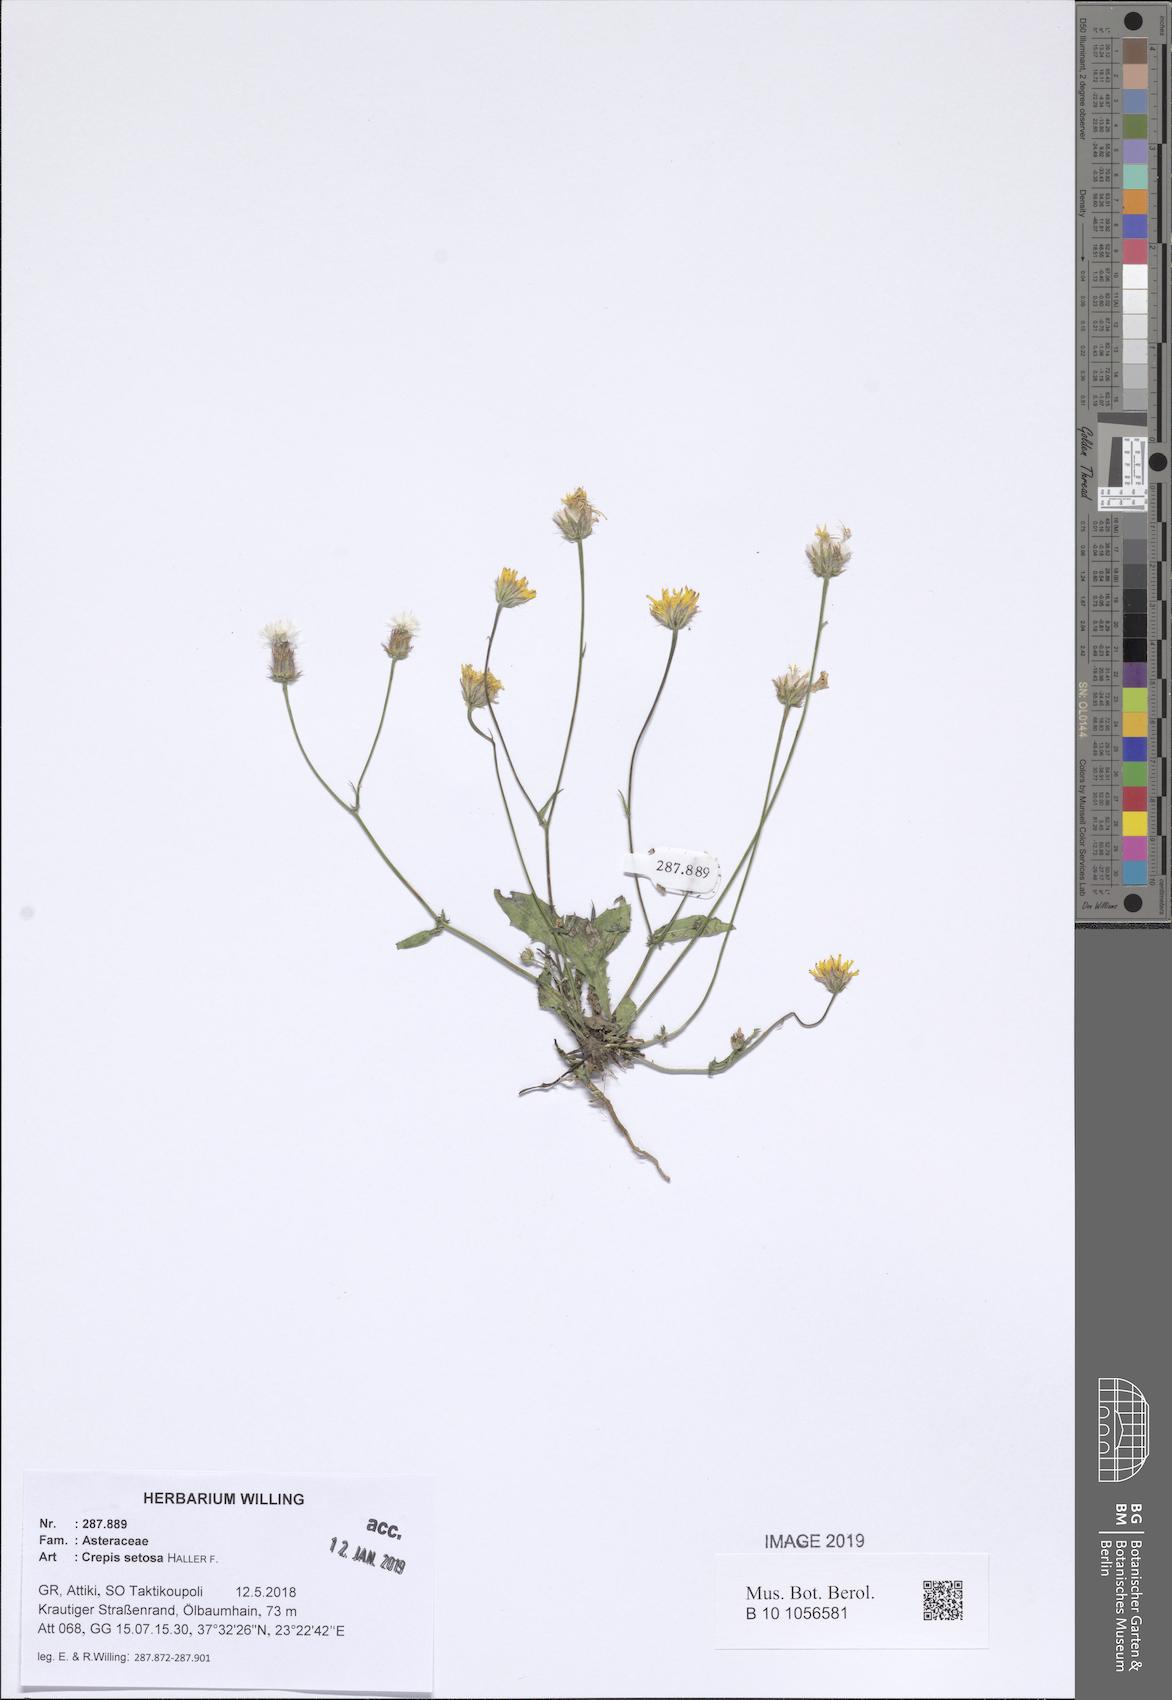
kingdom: Plantae
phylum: Tracheophyta
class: Magnoliopsida
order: Asterales
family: Asteraceae
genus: Crepis
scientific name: Crepis setosa
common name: Bristly hawk's-beard
